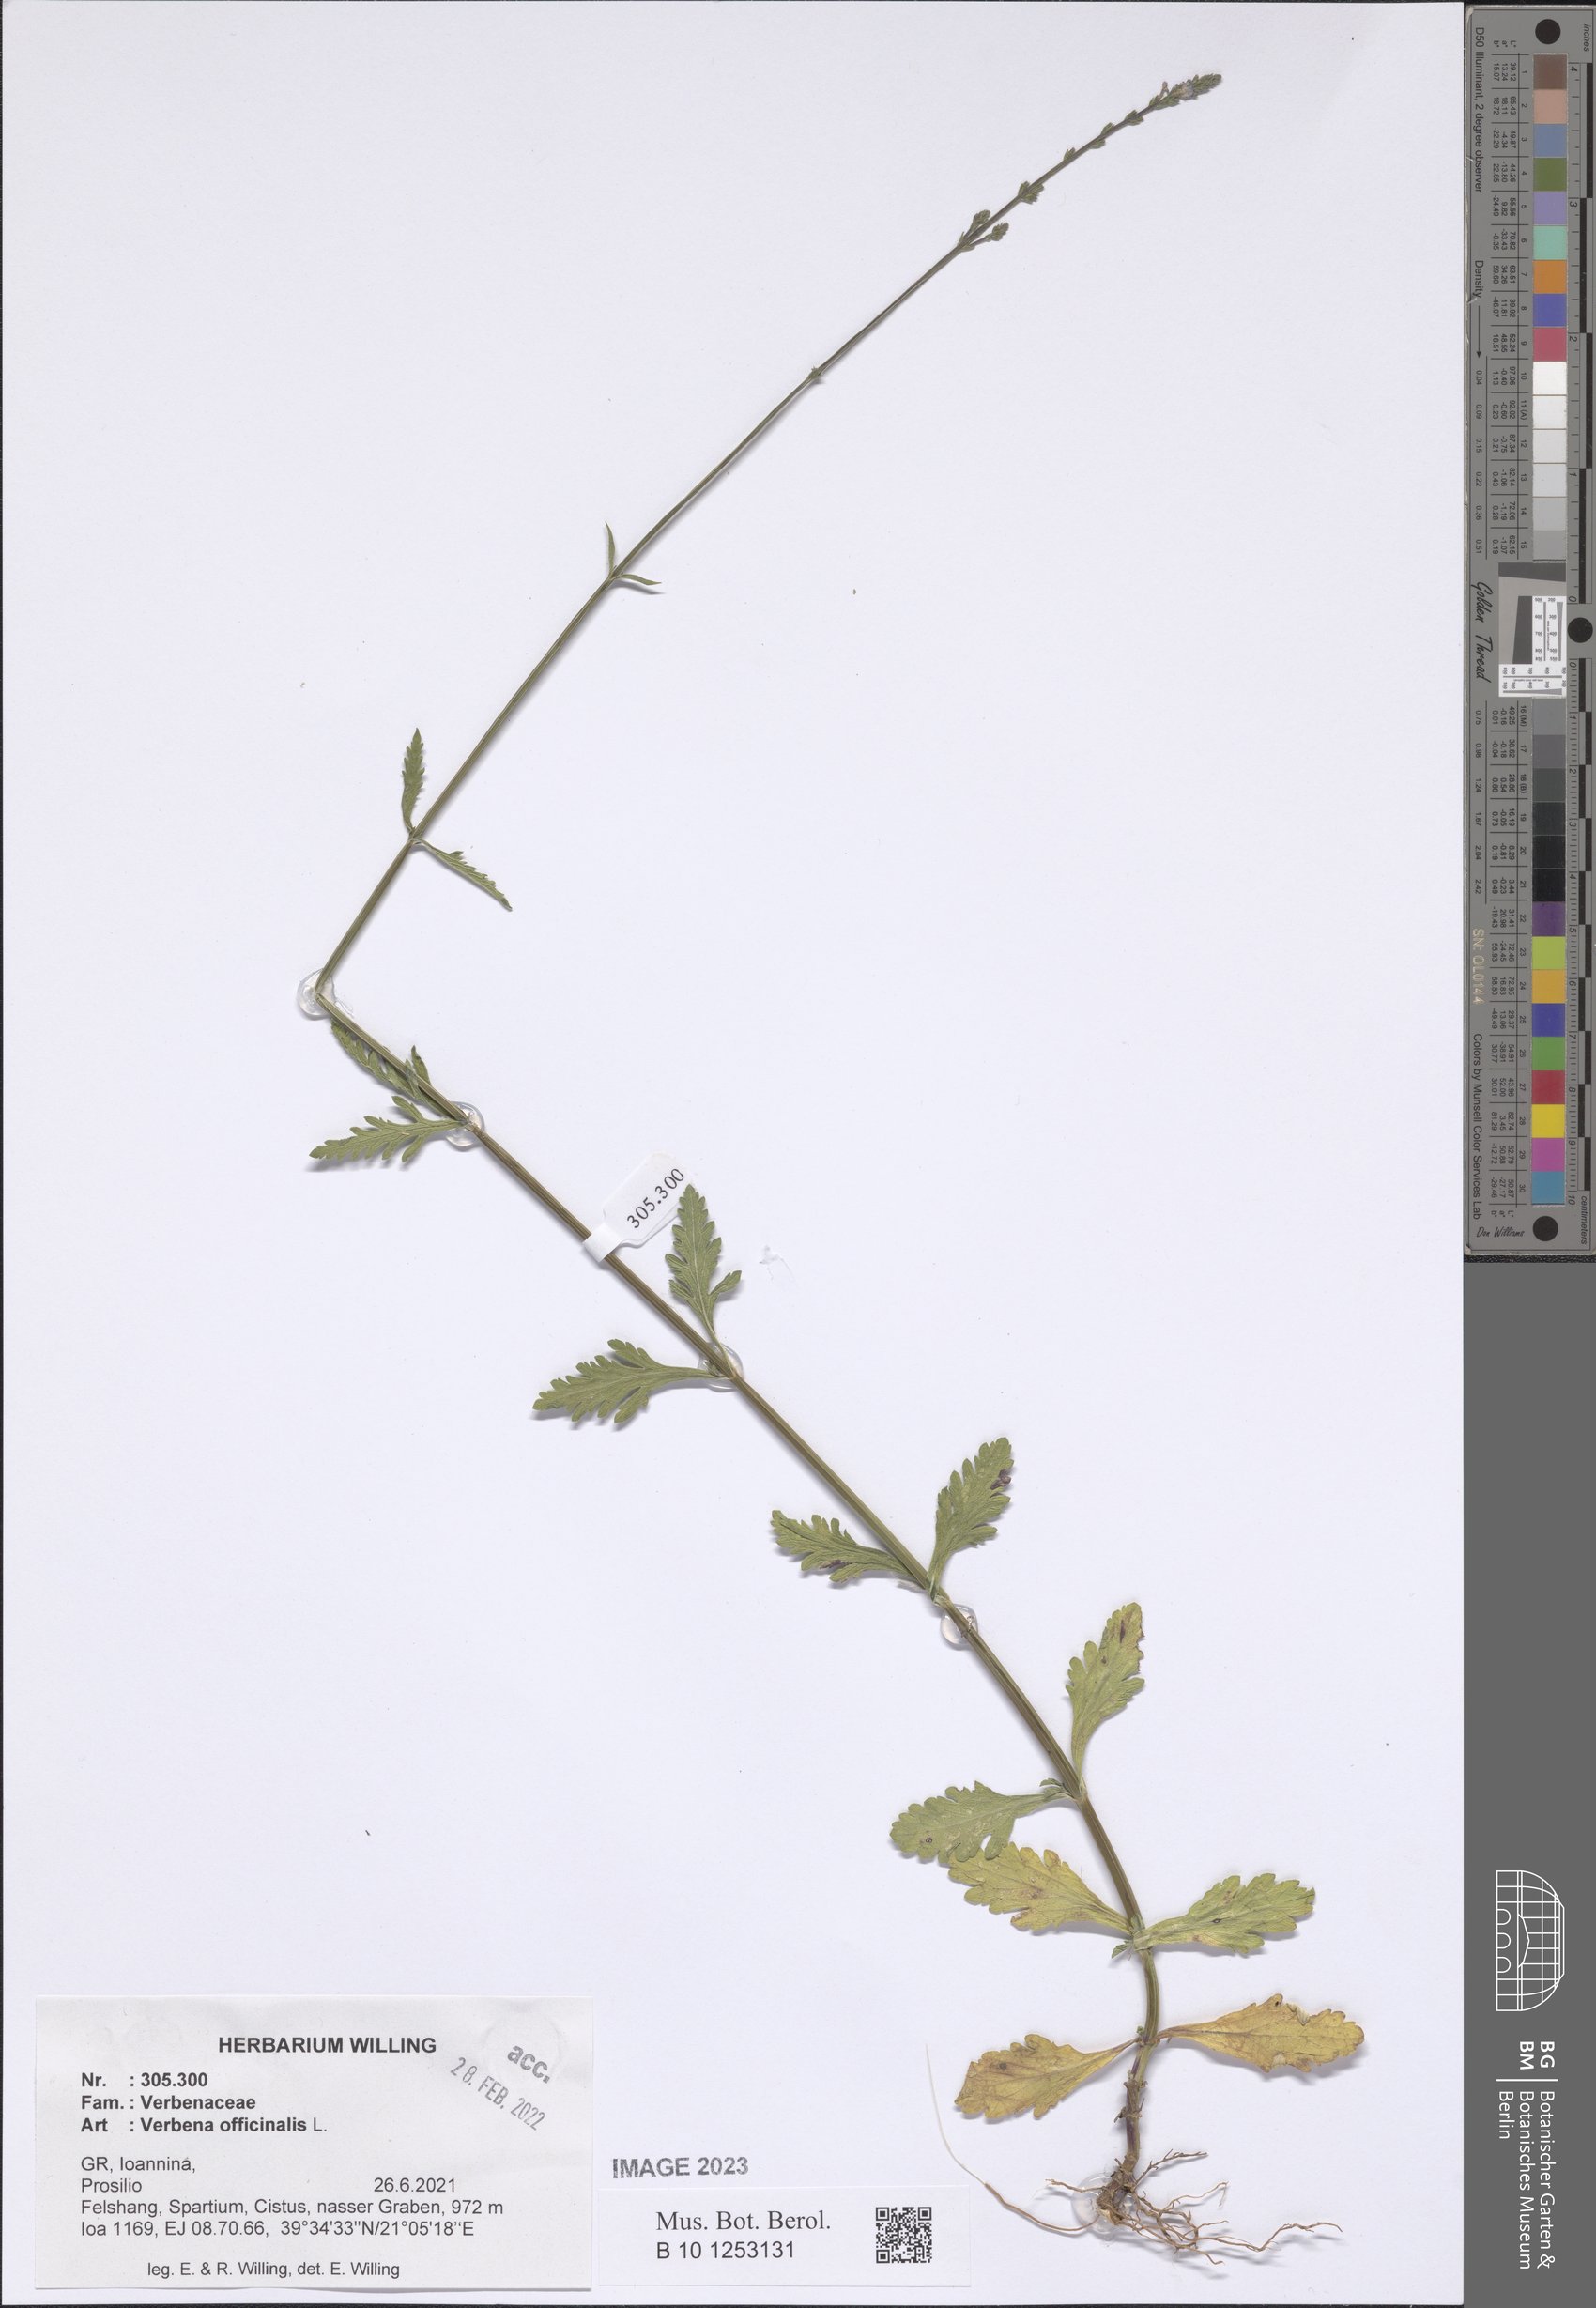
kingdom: Plantae
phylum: Tracheophyta
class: Magnoliopsida
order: Lamiales
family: Verbenaceae
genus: Verbena
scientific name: Verbena officinalis
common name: Vervain
